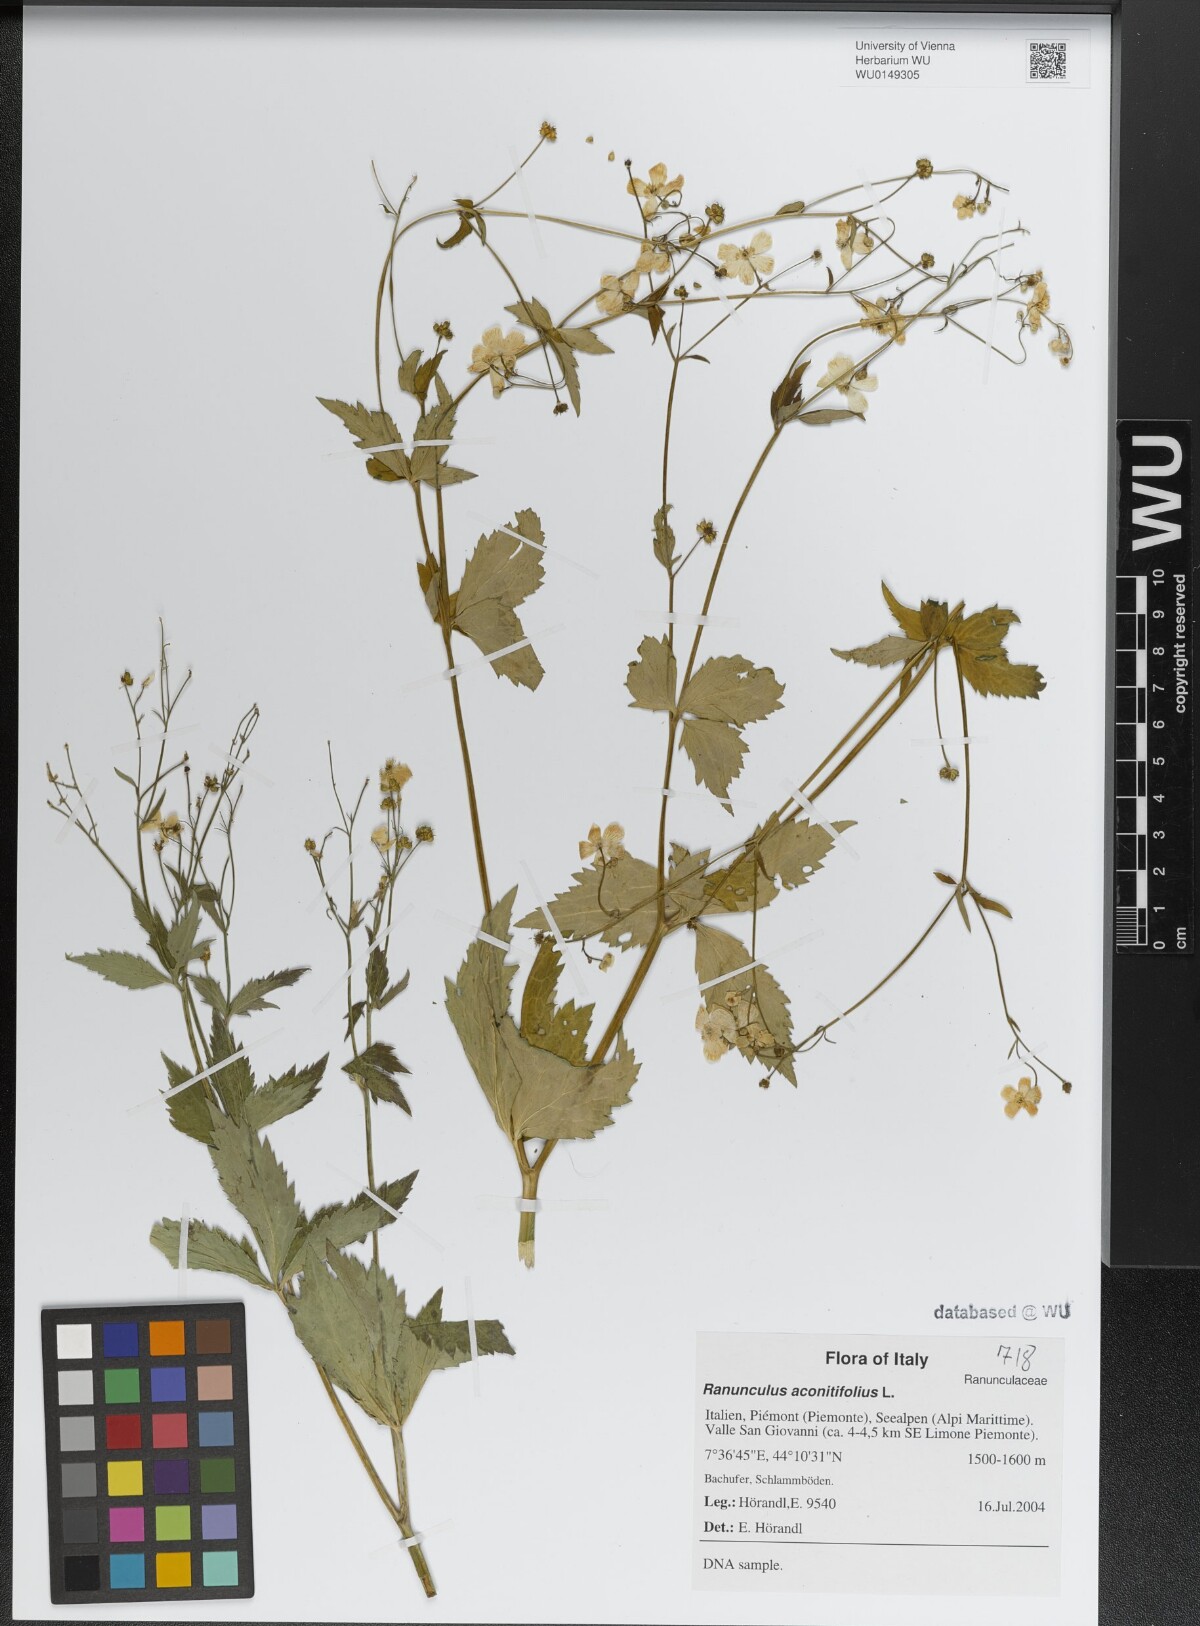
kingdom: Plantae
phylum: Tracheophyta
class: Magnoliopsida
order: Ranunculales
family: Ranunculaceae
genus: Ranunculus
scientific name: Ranunculus aconitifolius
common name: Aconite-leaved buttercup
